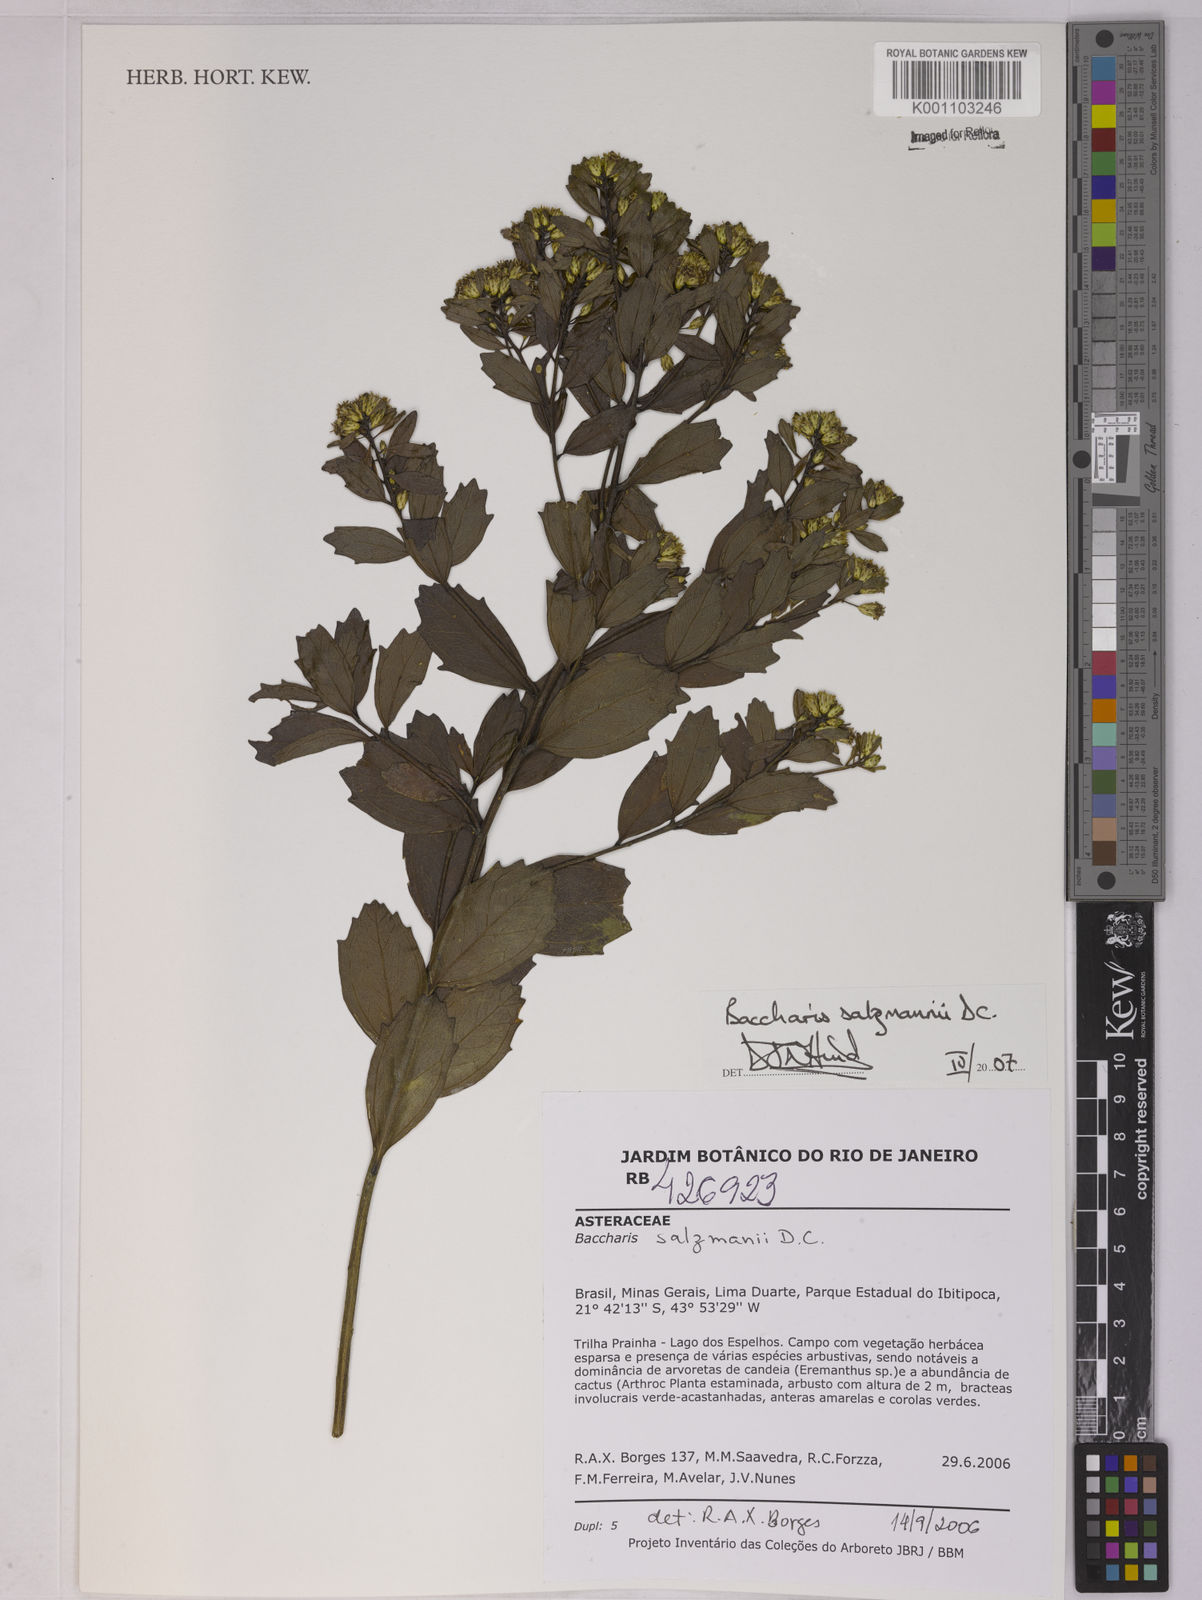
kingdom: Plantae
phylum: Tracheophyta
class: Magnoliopsida
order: Asterales
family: Asteraceae
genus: Baccharis
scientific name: Baccharis retusa
